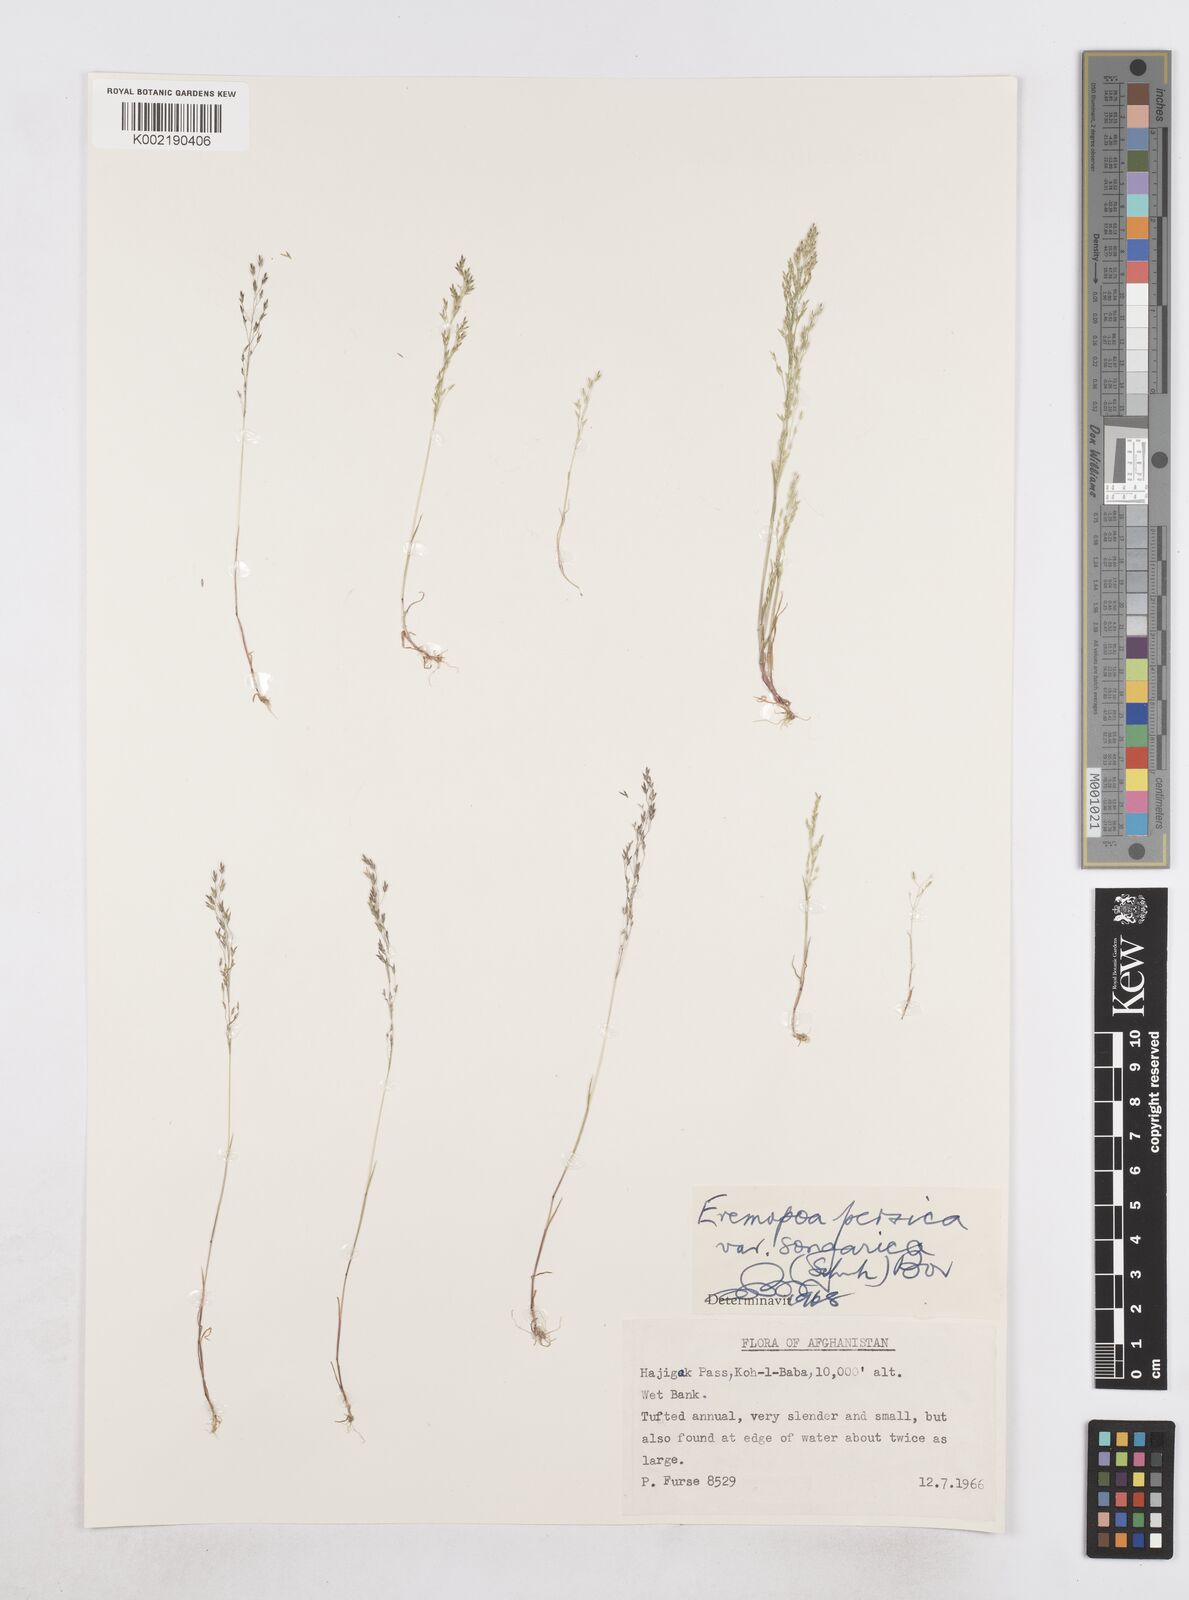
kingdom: Plantae
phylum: Tracheophyta
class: Liliopsida
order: Poales
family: Poaceae
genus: Poa
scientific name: Poa diaphora
